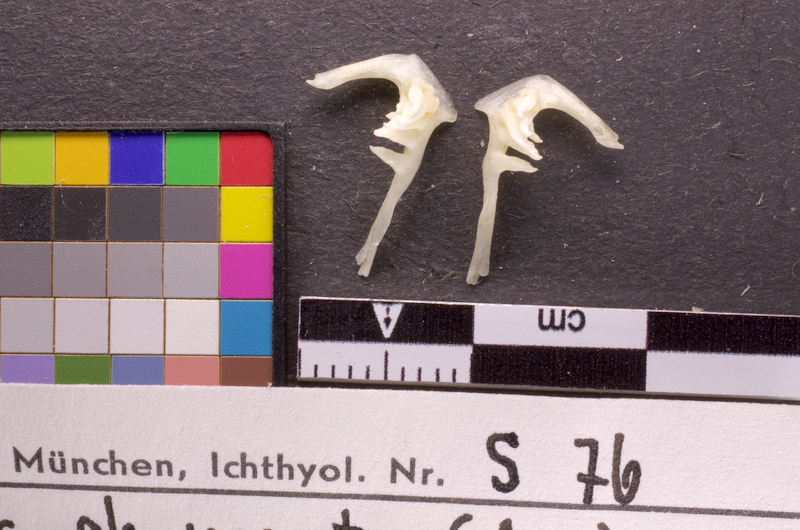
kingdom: Animalia
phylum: Chordata
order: Cypriniformes
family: Cyprinidae
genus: Alburnus
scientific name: Alburnus mento
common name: Seelaube
